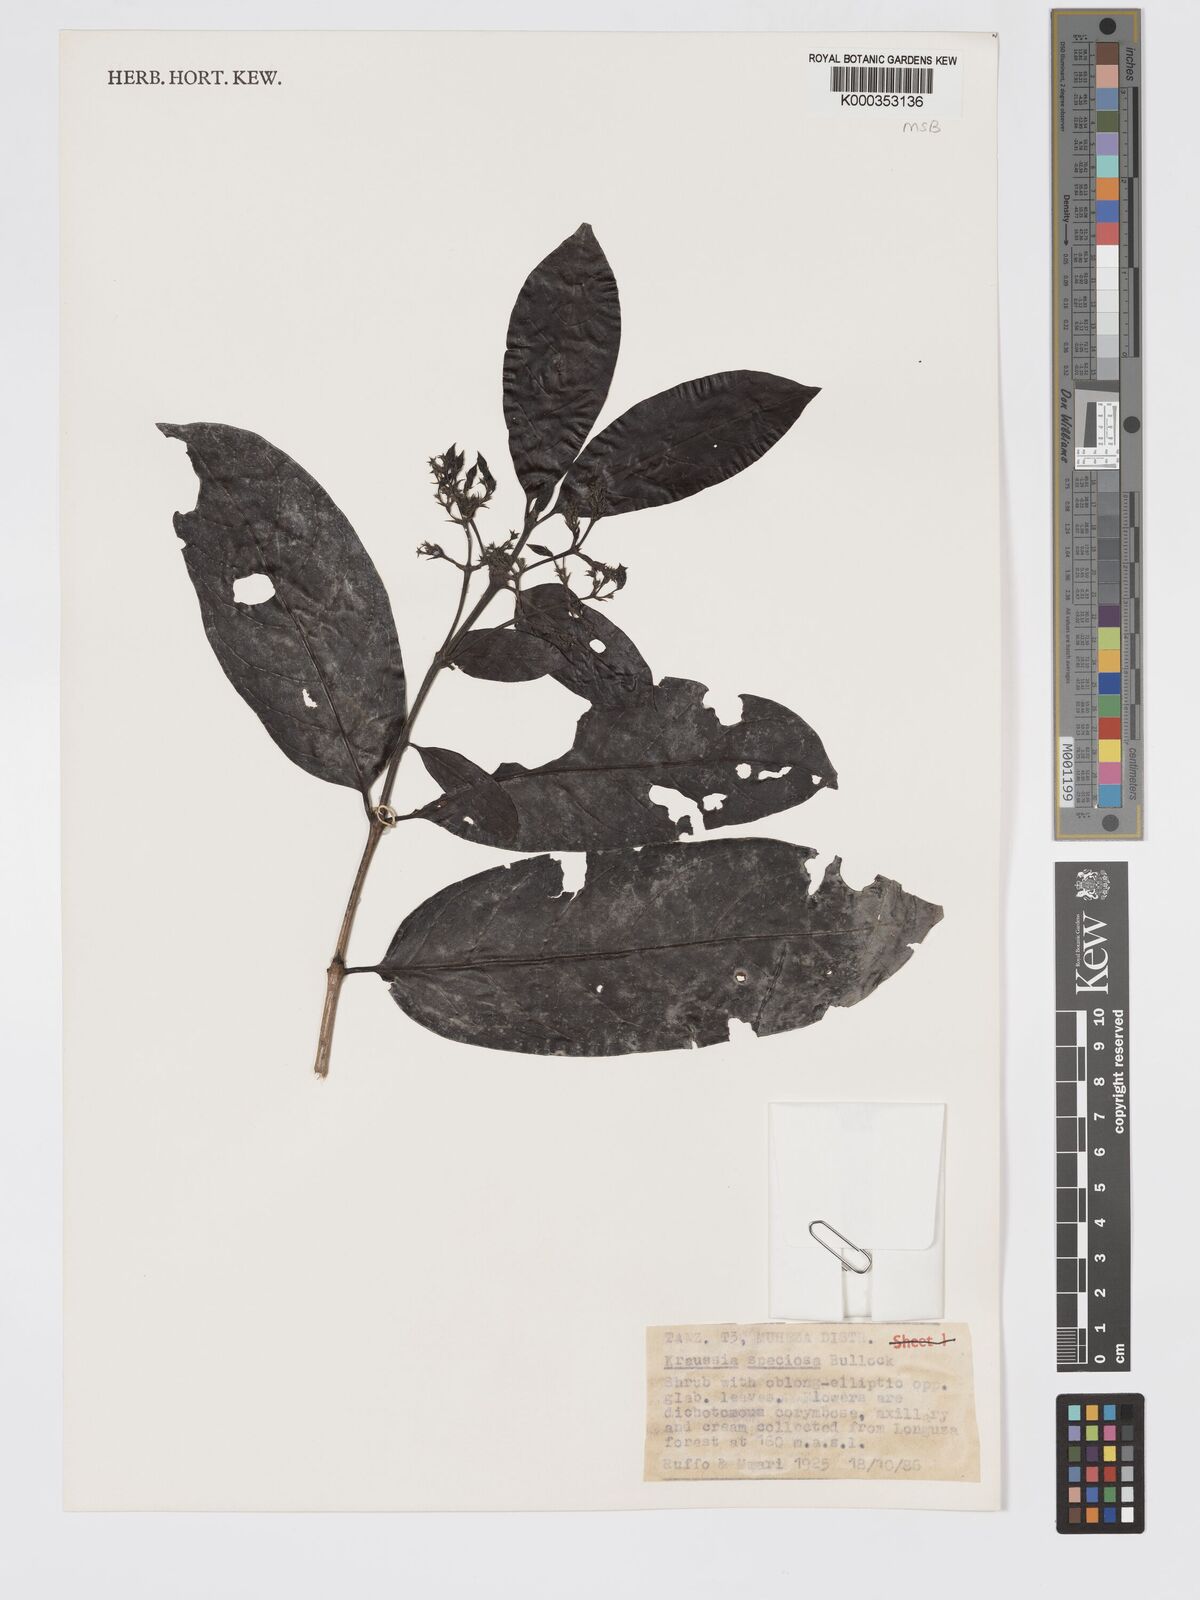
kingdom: Plantae
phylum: Tracheophyta
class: Magnoliopsida
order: Gentianales
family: Rubiaceae
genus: Kraussia
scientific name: Kraussia speciosa
